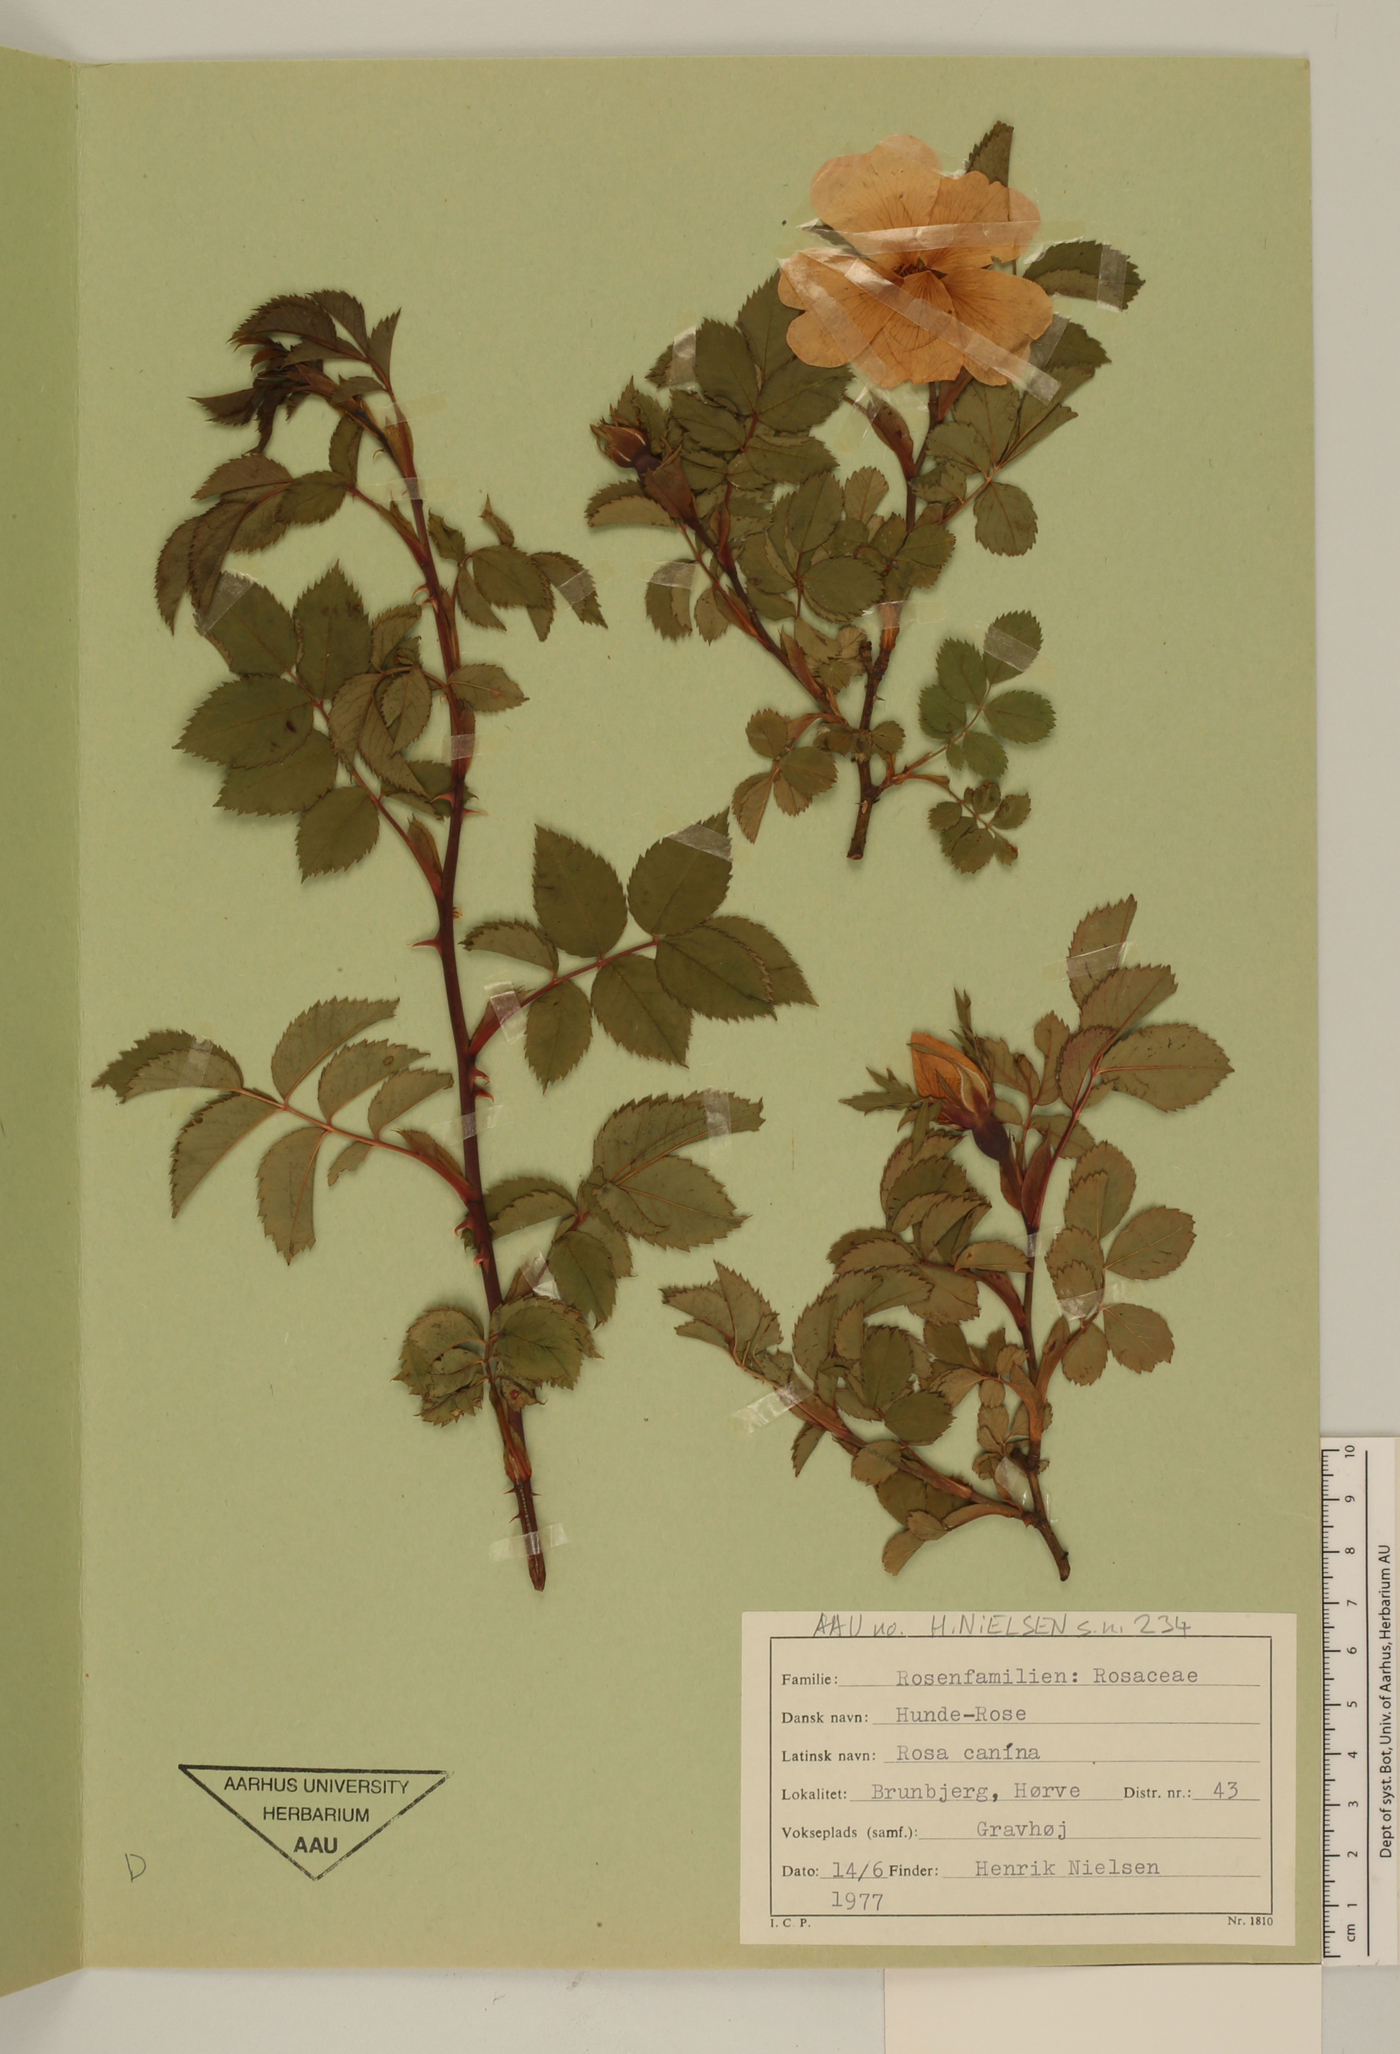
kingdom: Plantae
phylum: Tracheophyta
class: Magnoliopsida
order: Rosales
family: Rosaceae
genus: Rosa
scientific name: Rosa canina
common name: Dog rose
